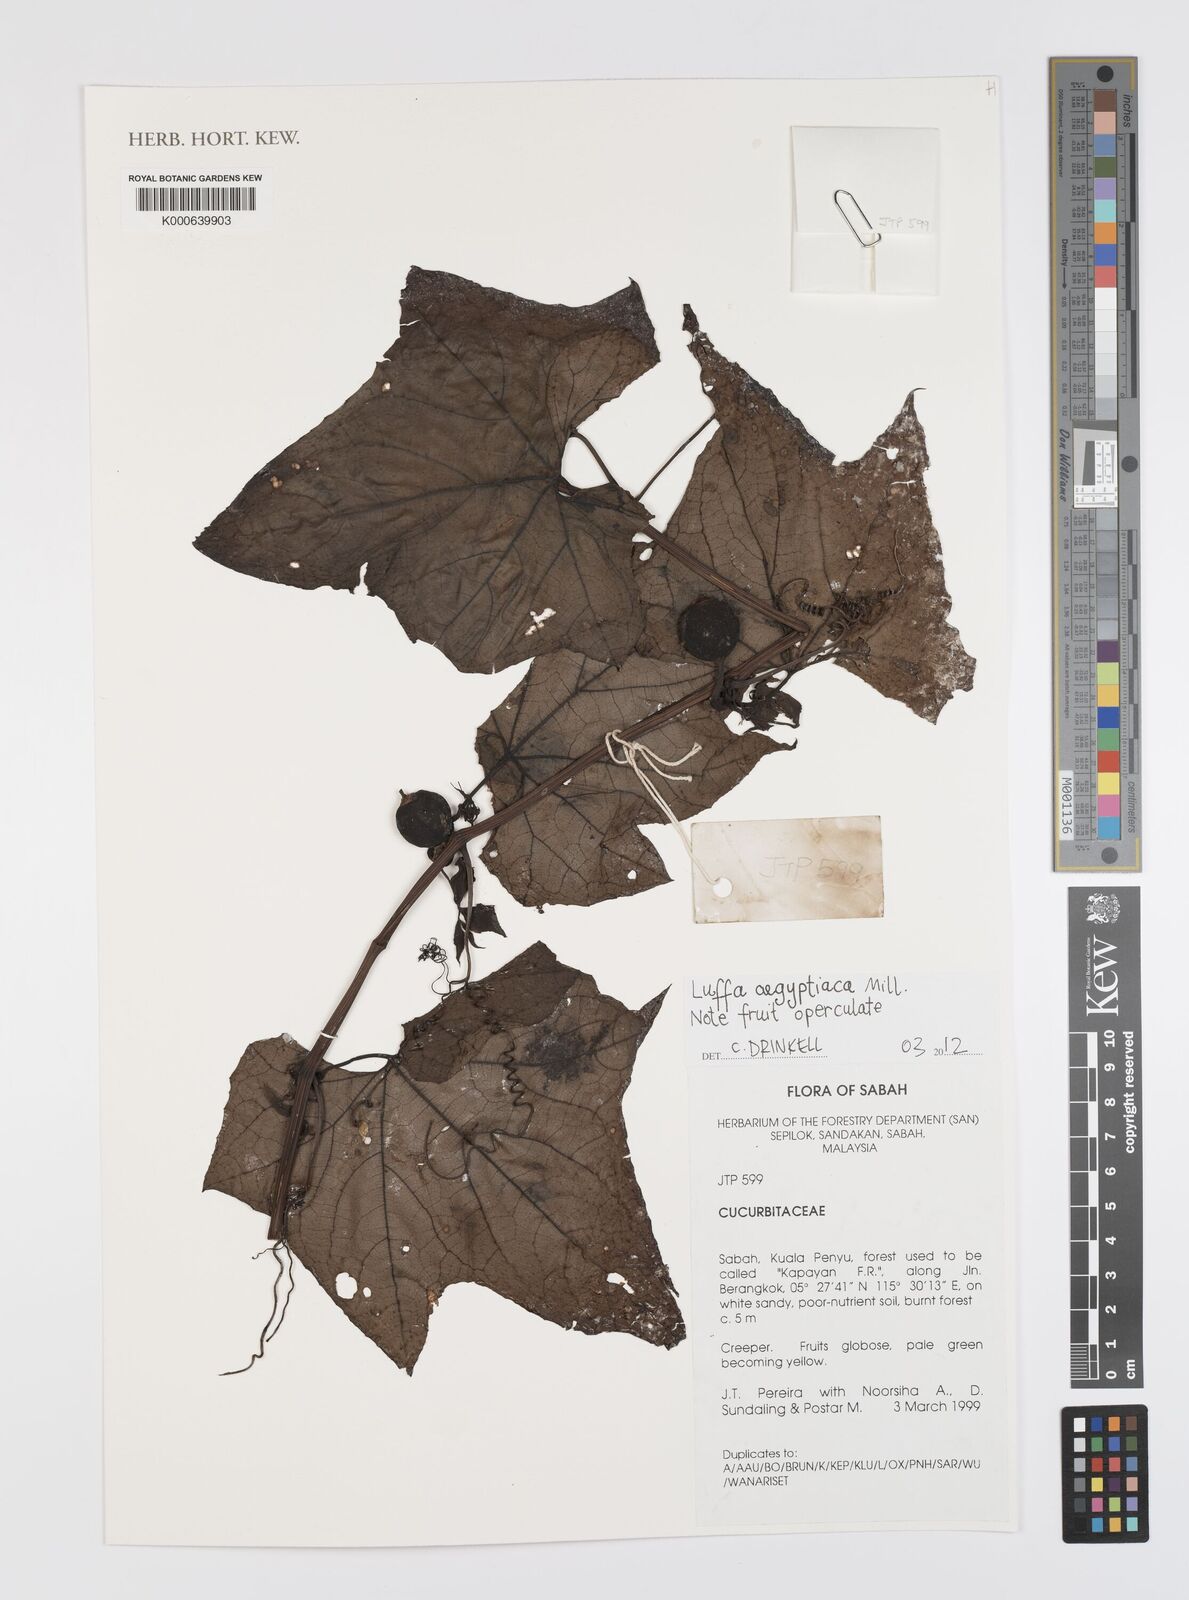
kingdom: Plantae
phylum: Tracheophyta
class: Magnoliopsida
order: Cucurbitales
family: Cucurbitaceae
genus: Luffa
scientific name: Luffa aegyptiaca
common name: Sponge gourd
